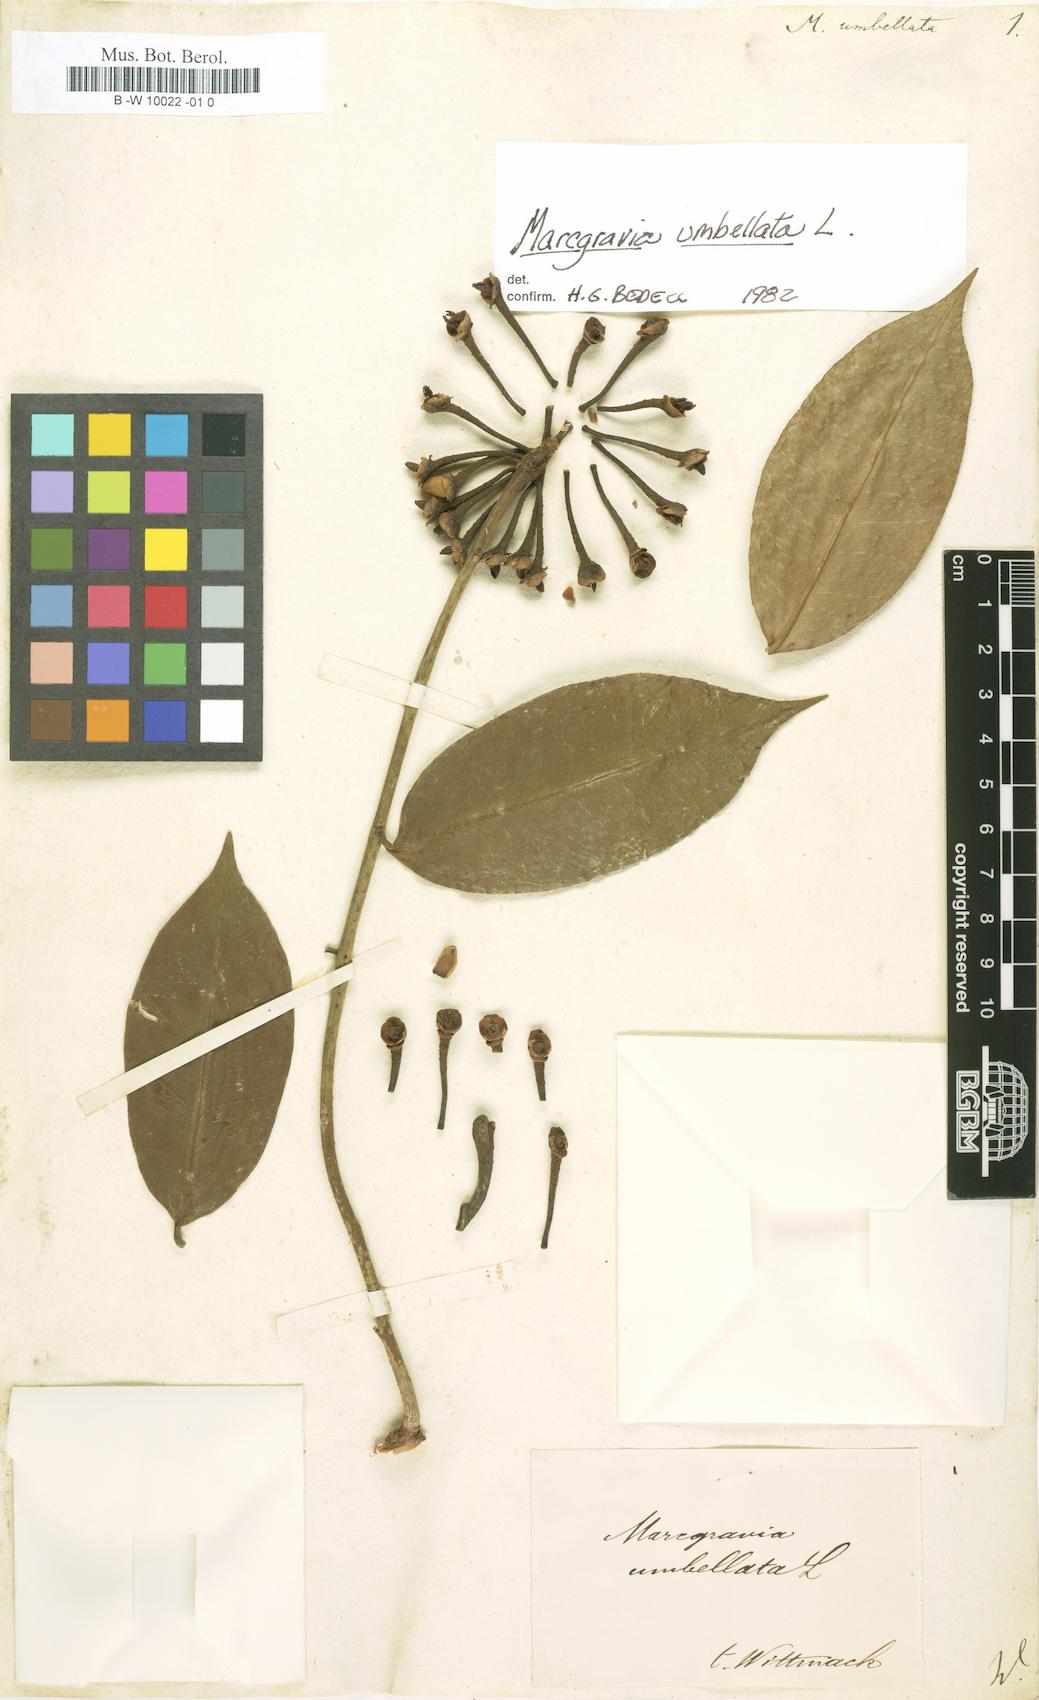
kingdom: Plantae
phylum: Tracheophyta
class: Magnoliopsida
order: Ericales
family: Marcgraviaceae
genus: Marcgravia
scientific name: Marcgravia umbellata
